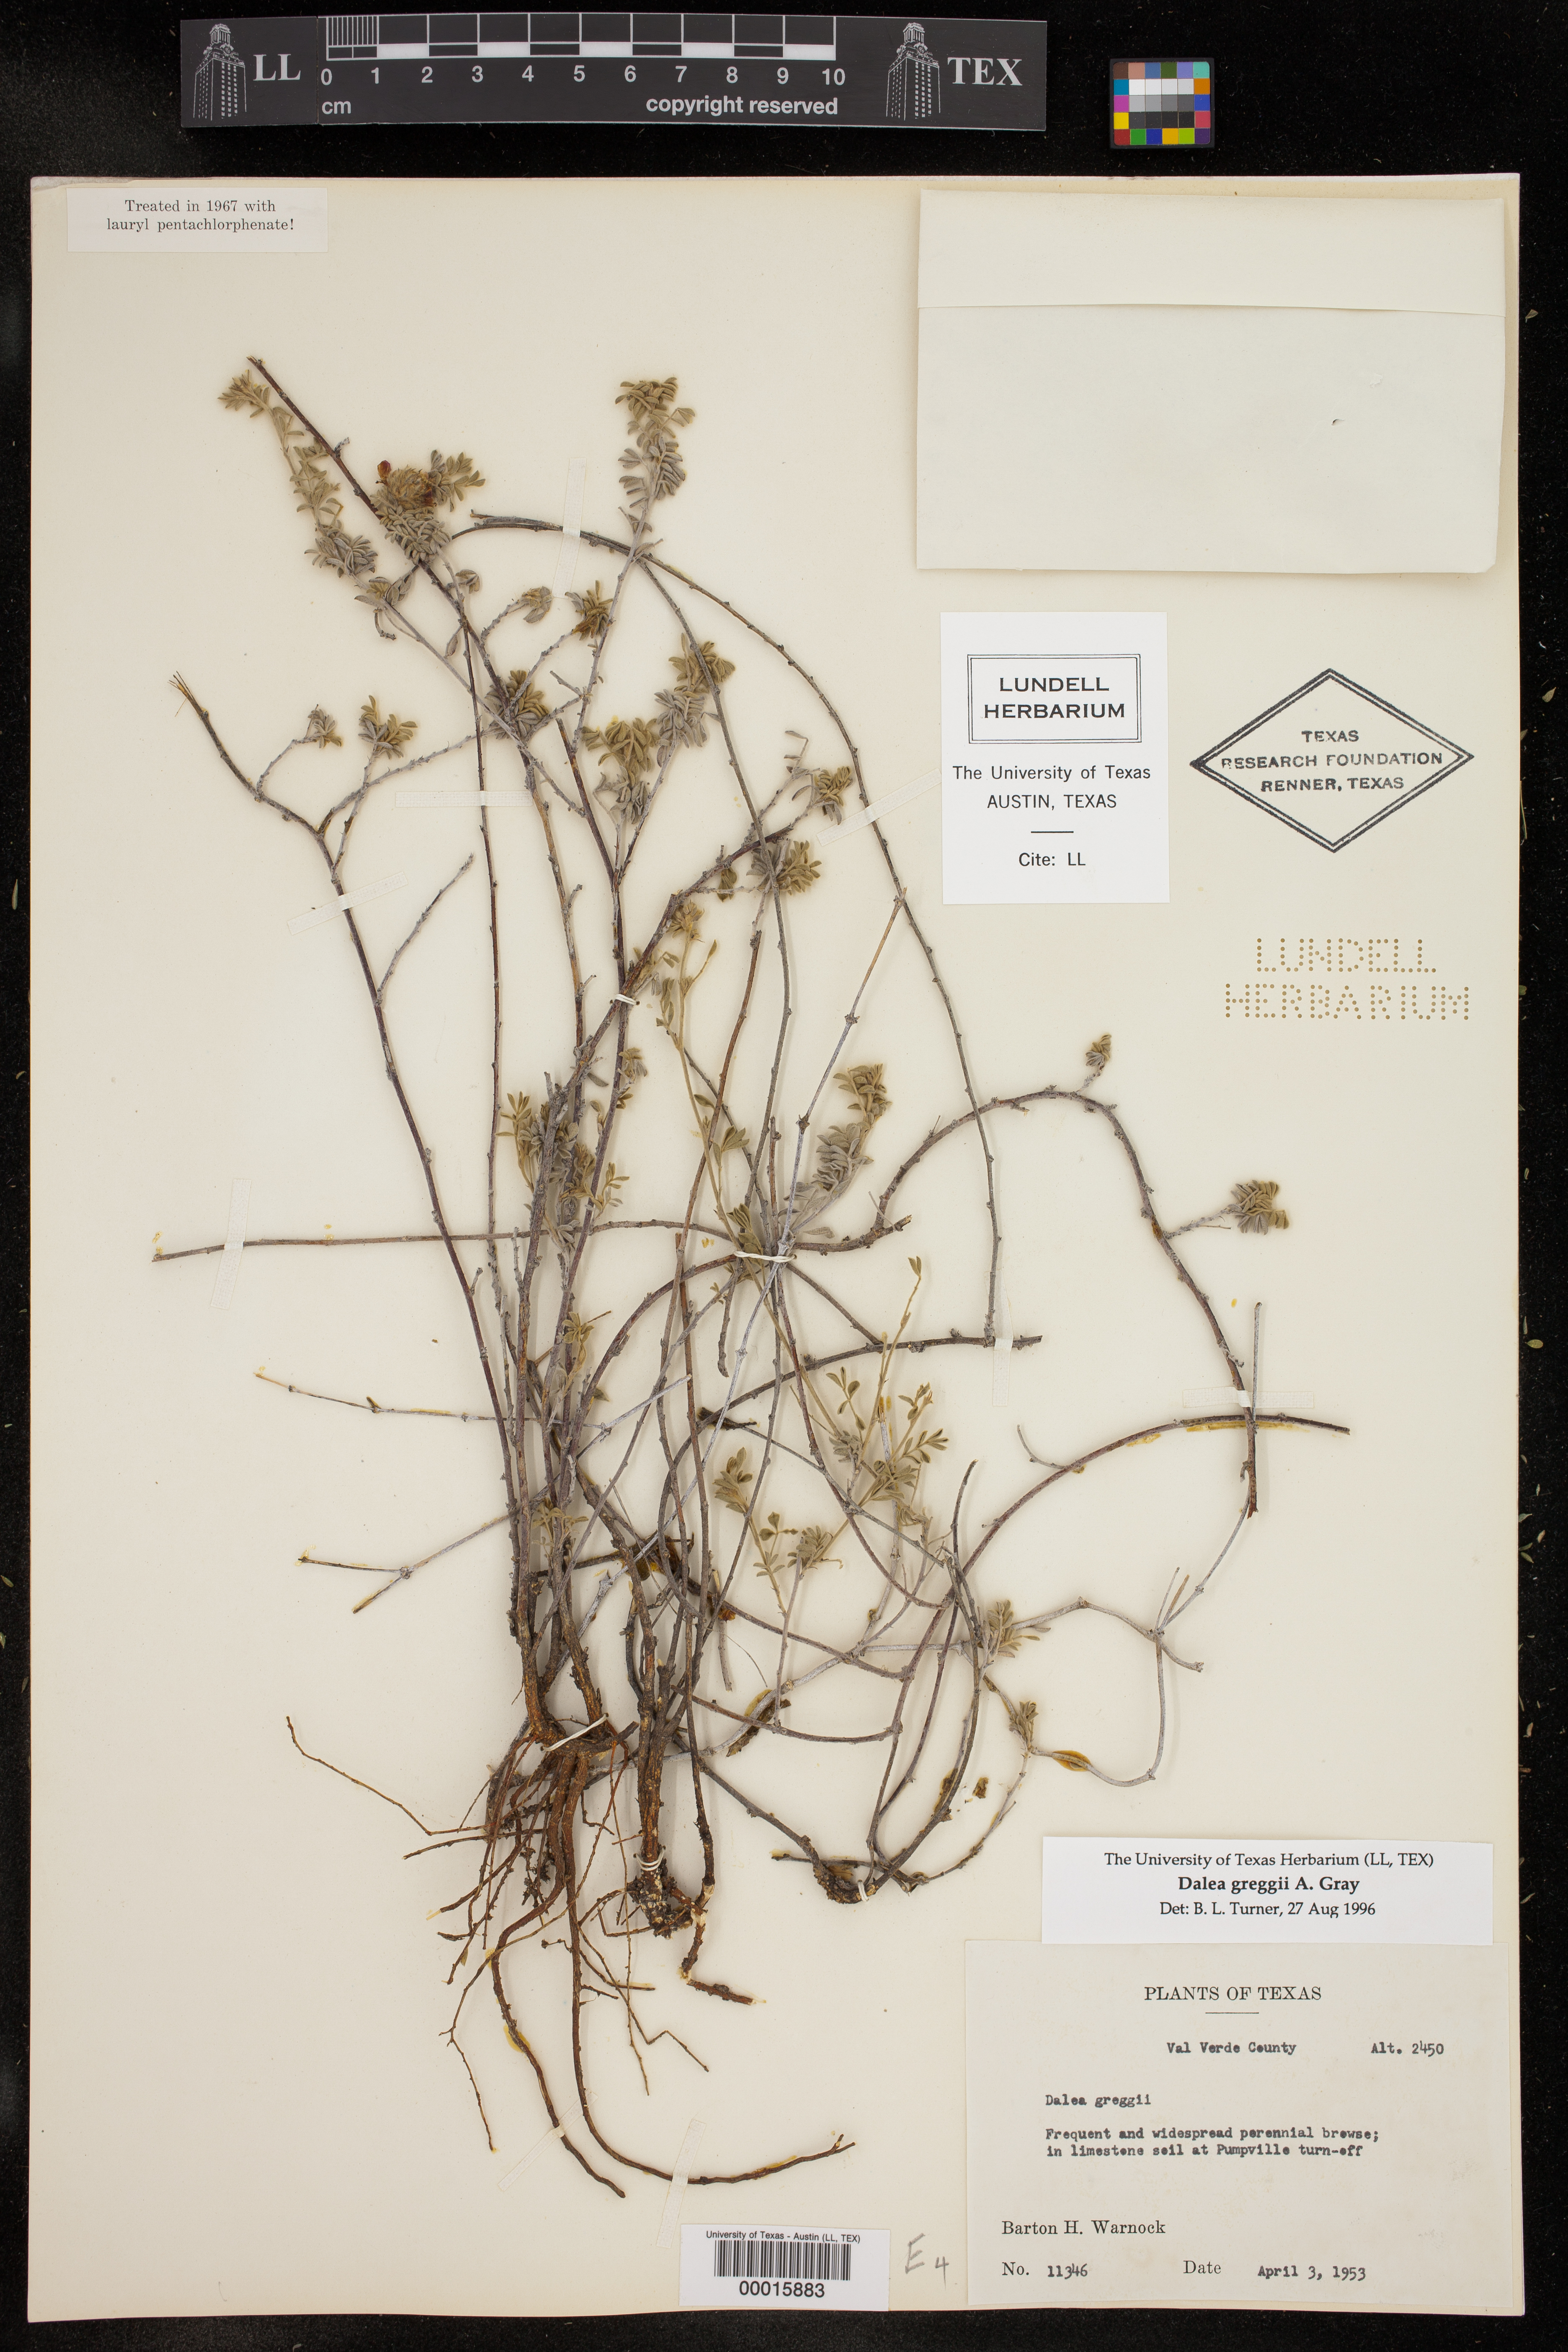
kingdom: Plantae
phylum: Tracheophyta
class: Magnoliopsida
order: Fabales
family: Fabaceae
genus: Dalea
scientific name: Dalea greggii
